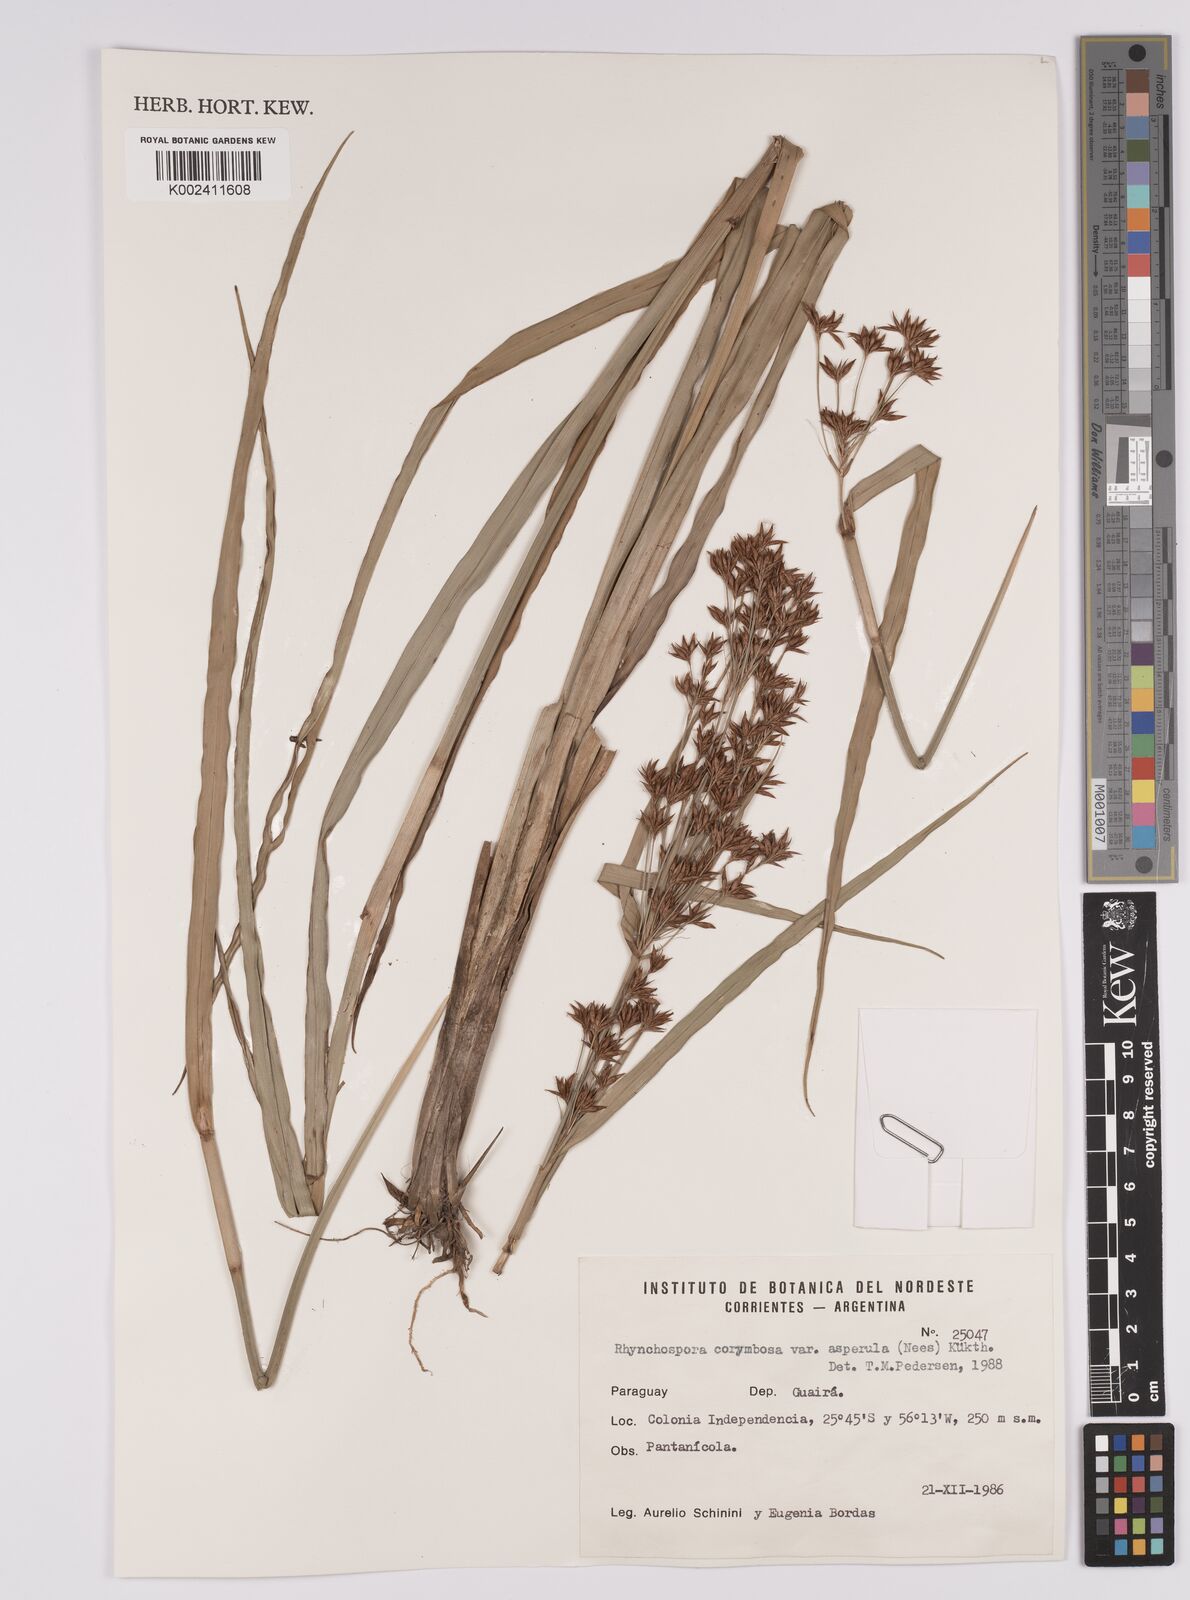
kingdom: Plantae
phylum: Tracheophyta
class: Liliopsida
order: Poales
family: Cyperaceae
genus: Rhynchospora
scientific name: Rhynchospora asperula
